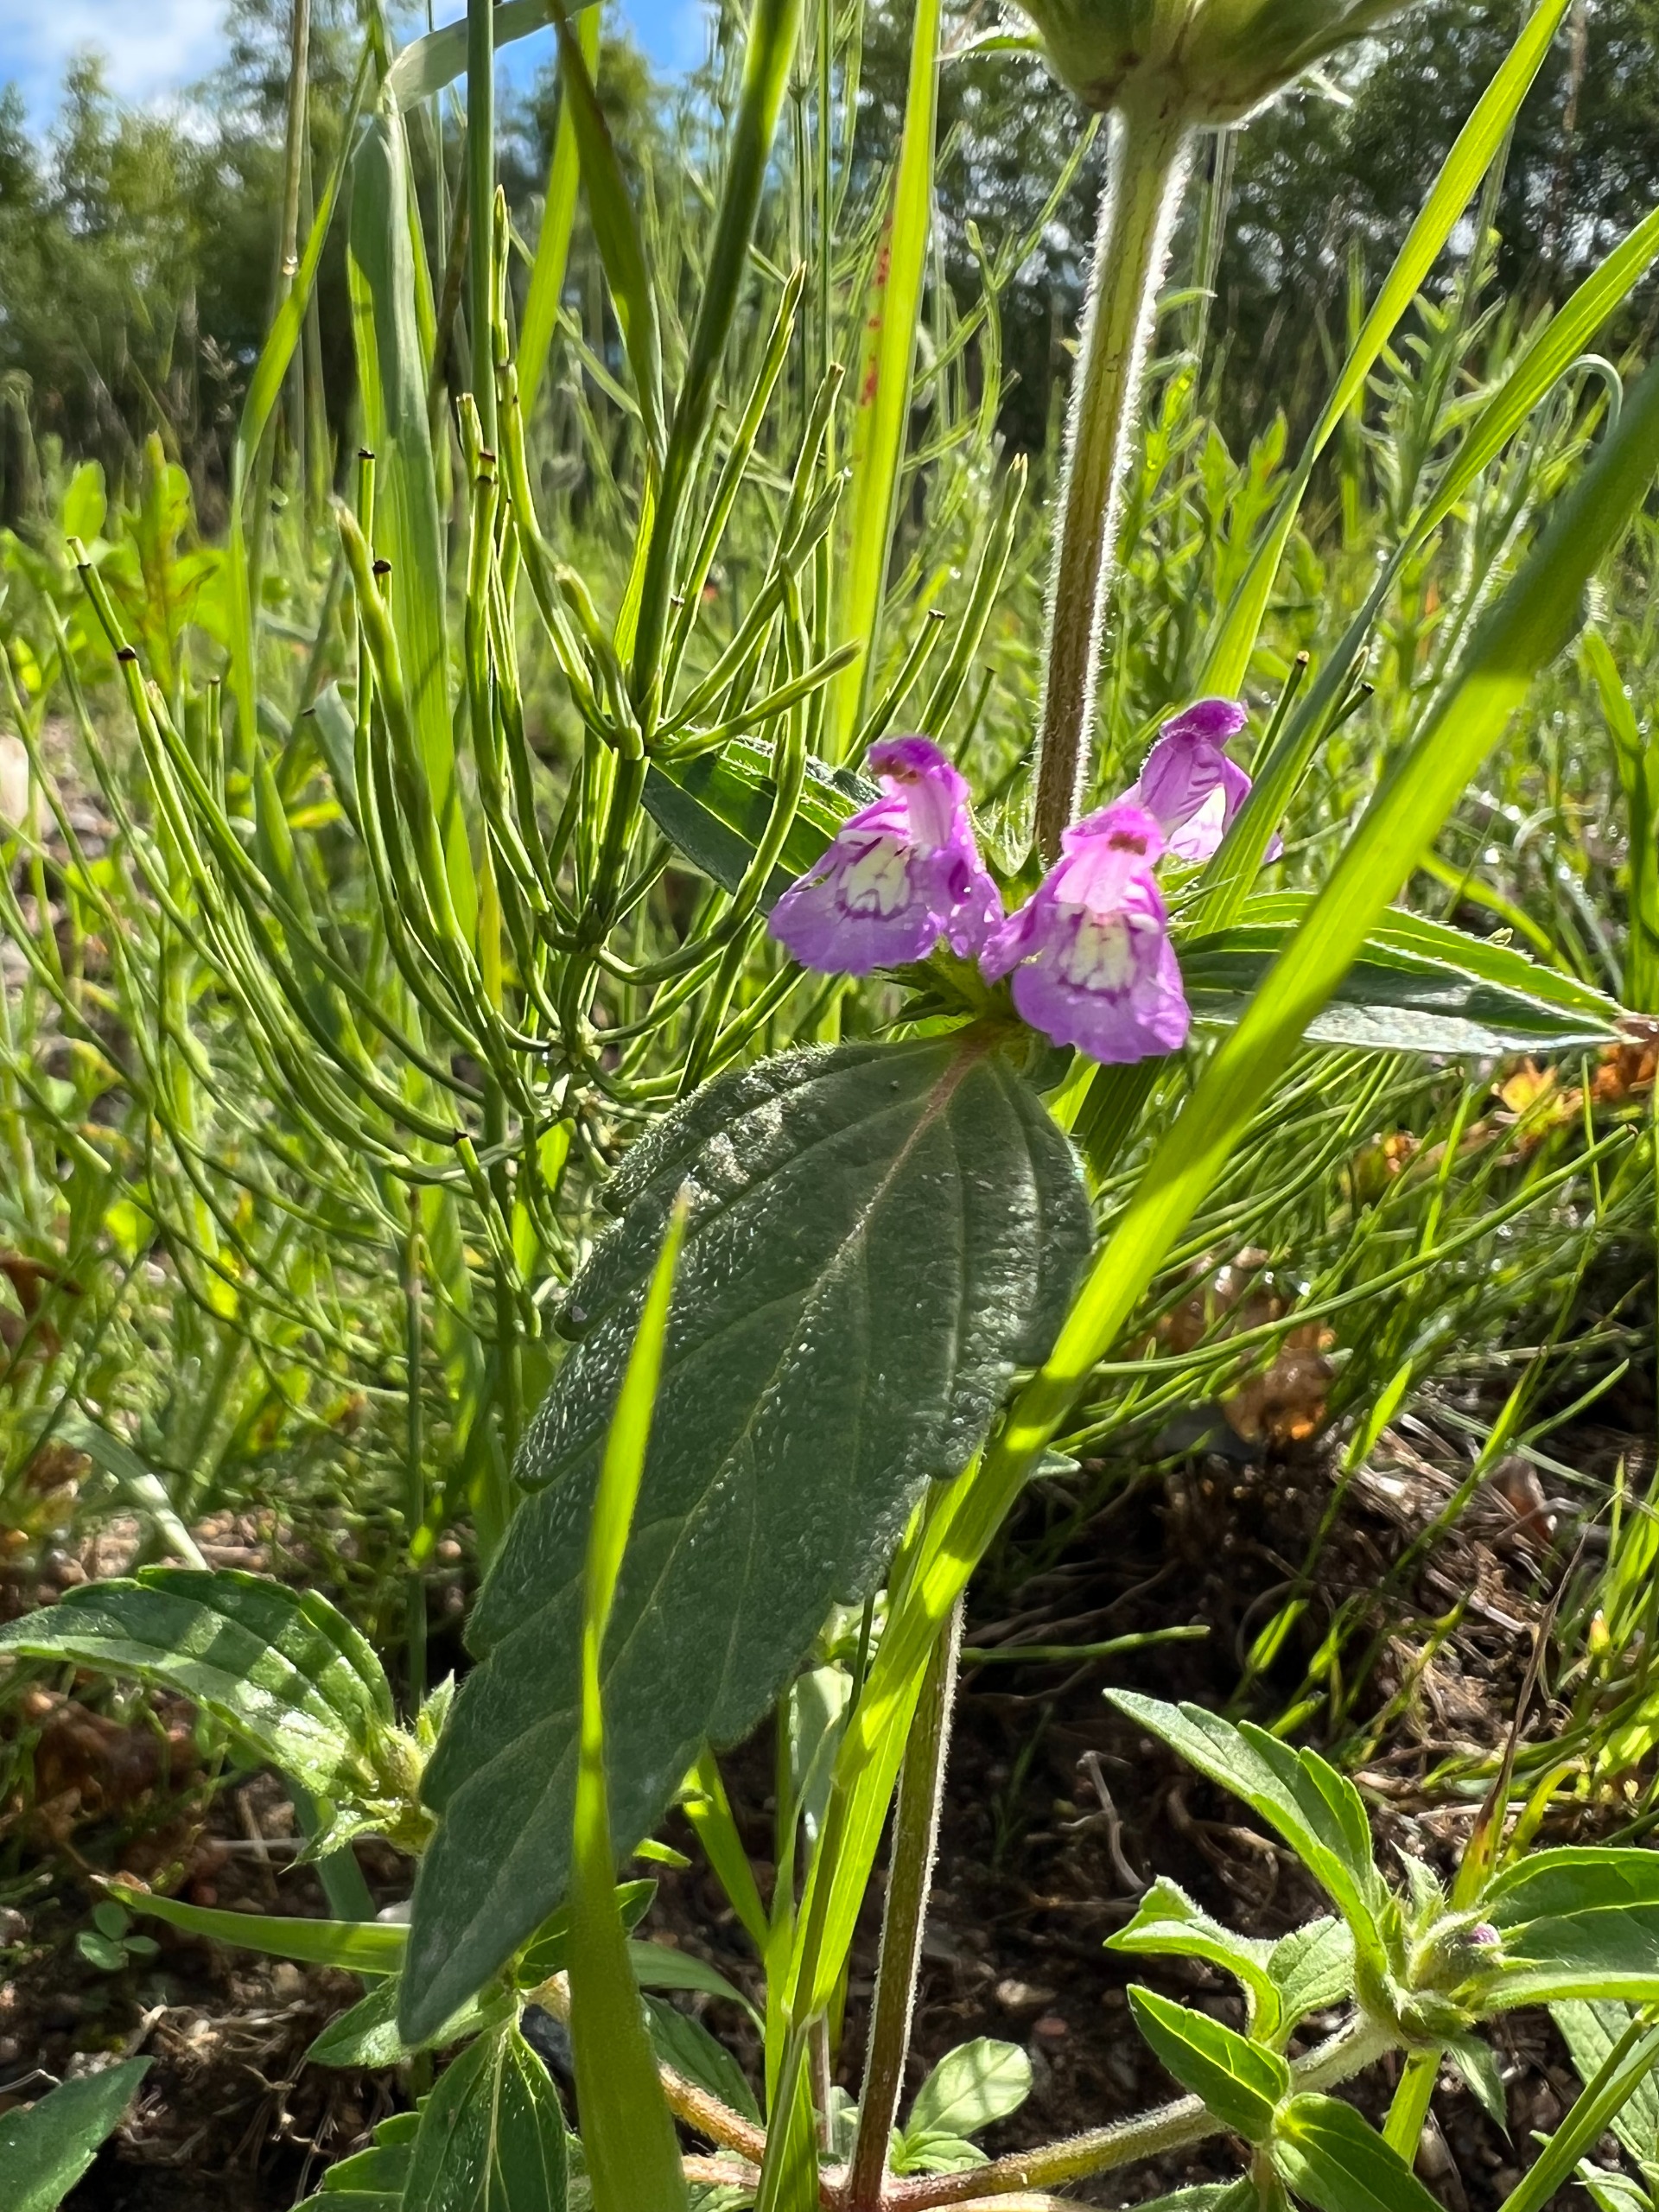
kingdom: Plantae
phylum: Tracheophyta
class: Magnoliopsida
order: Lamiales
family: Lamiaceae
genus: Galeopsis
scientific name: Galeopsis ladanum
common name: Sand-hanekro
